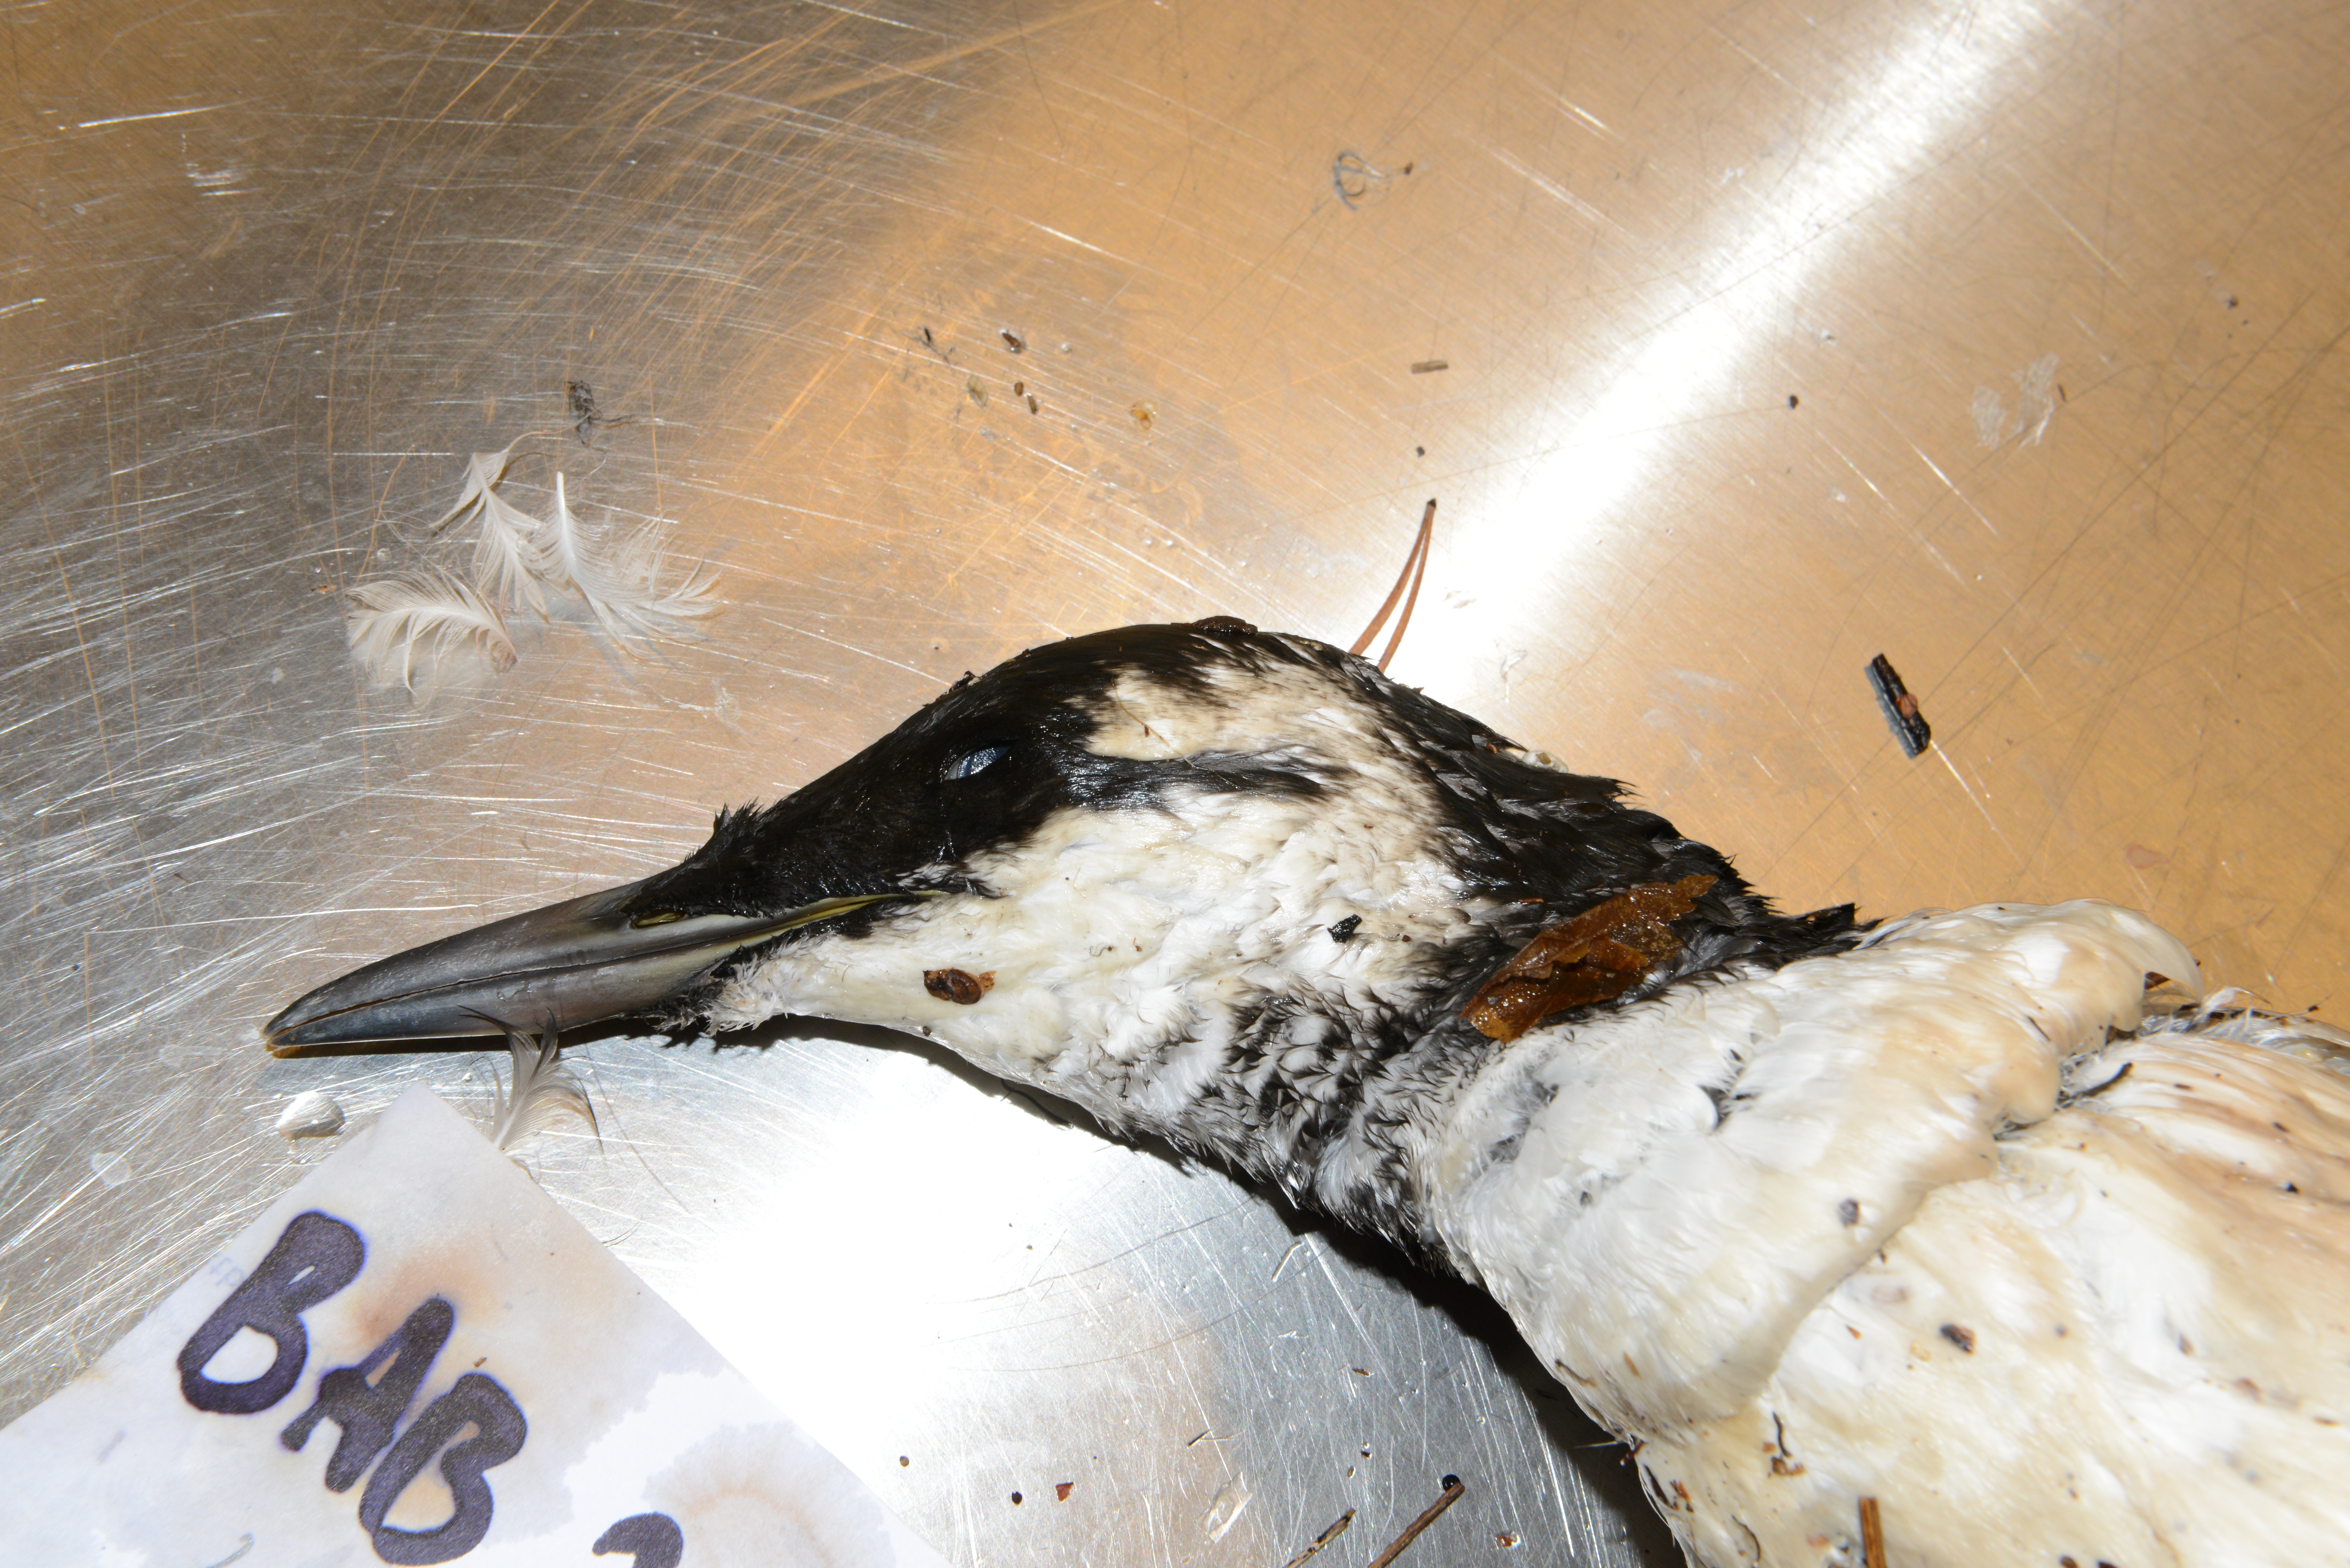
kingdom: Animalia
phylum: Chordata
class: Aves
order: Charadriiformes
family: Alcidae
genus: Uria
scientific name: Uria aalge
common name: Common murre
